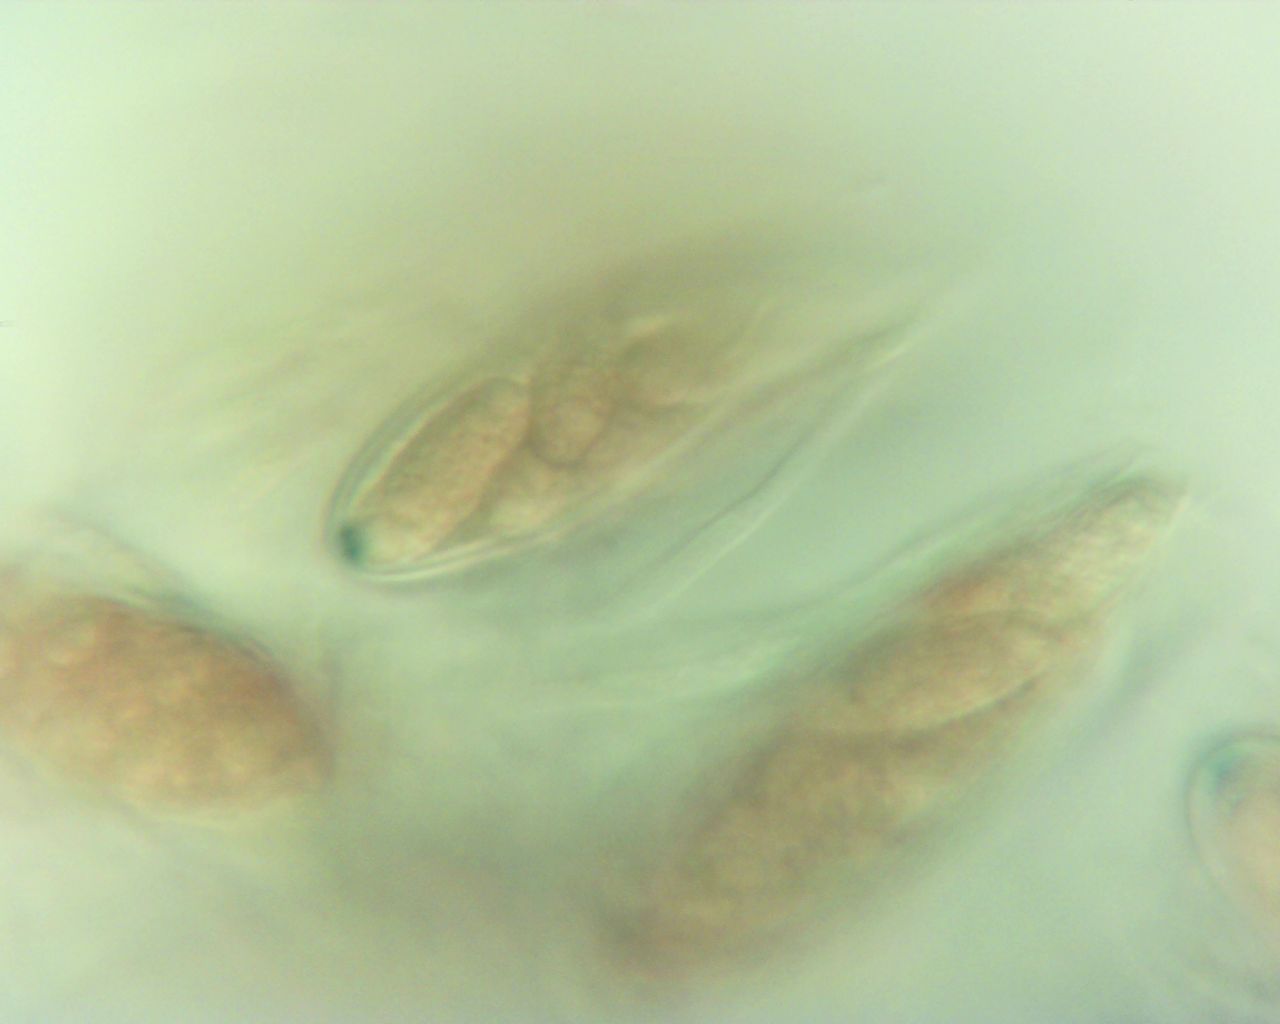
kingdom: Fungi
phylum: Ascomycota
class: Leotiomycetes
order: Helotiales
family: Cenangiaceae
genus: Trochila
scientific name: Trochila craterium
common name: vedbend-lågskive
